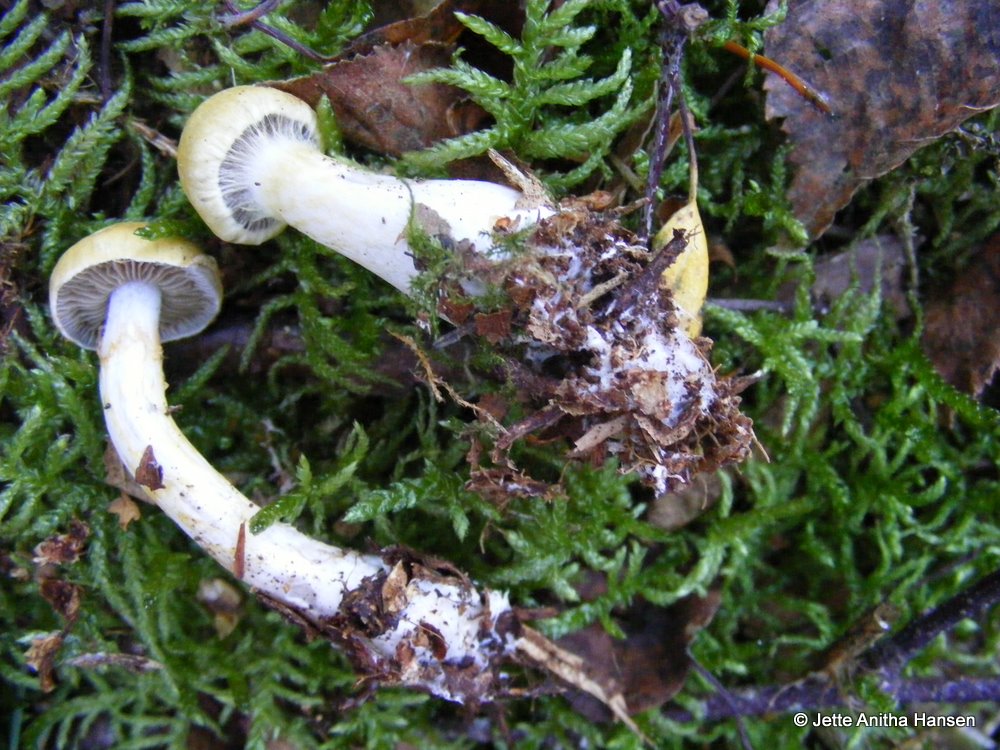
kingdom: Fungi
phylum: Basidiomycota
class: Agaricomycetes
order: Agaricales
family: Cortinariaceae
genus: Cortinarius
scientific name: Cortinarius delibutus
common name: gul slørhat
